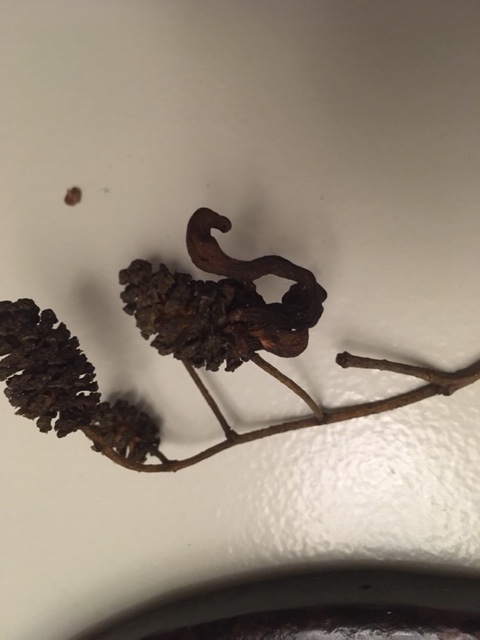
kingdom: Fungi
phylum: Ascomycota
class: Taphrinomycetes
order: Taphrinales
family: Taphrinaceae
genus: Taphrina
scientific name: Taphrina alni
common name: Alder tongue
